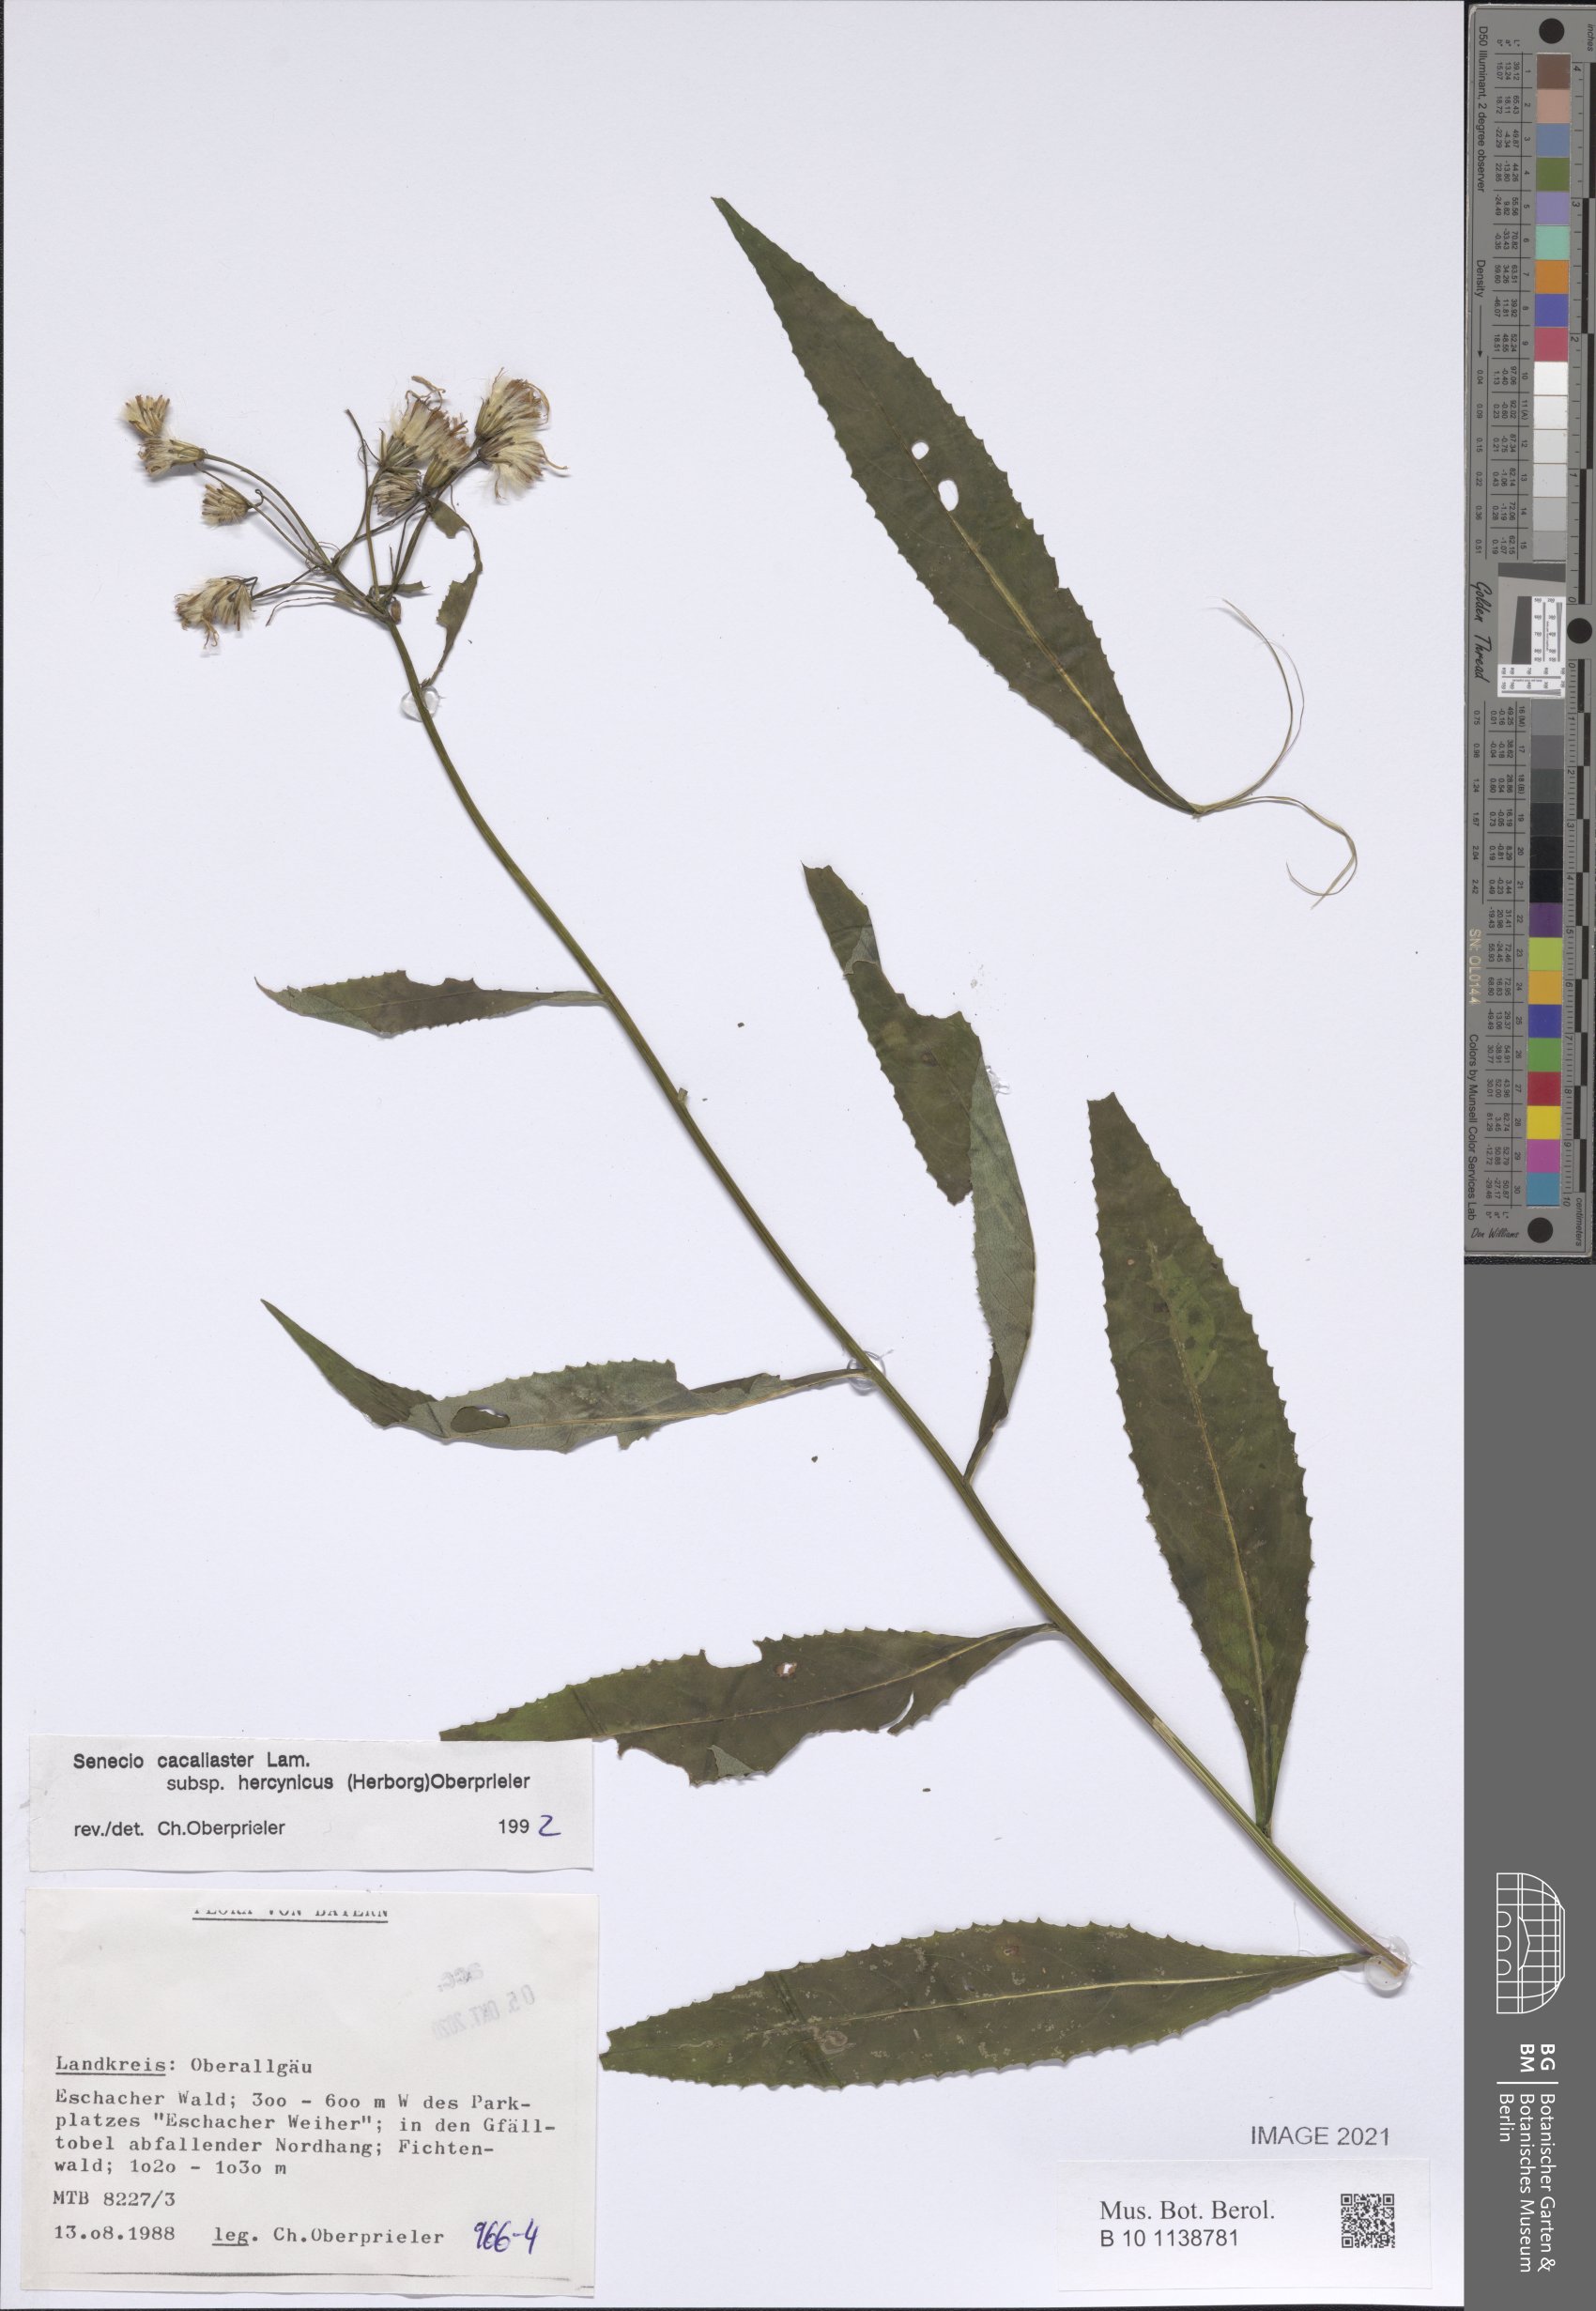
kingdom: Plantae
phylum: Tracheophyta
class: Magnoliopsida
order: Asterales
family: Asteraceae
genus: Senecio
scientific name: Senecio hercynicus
